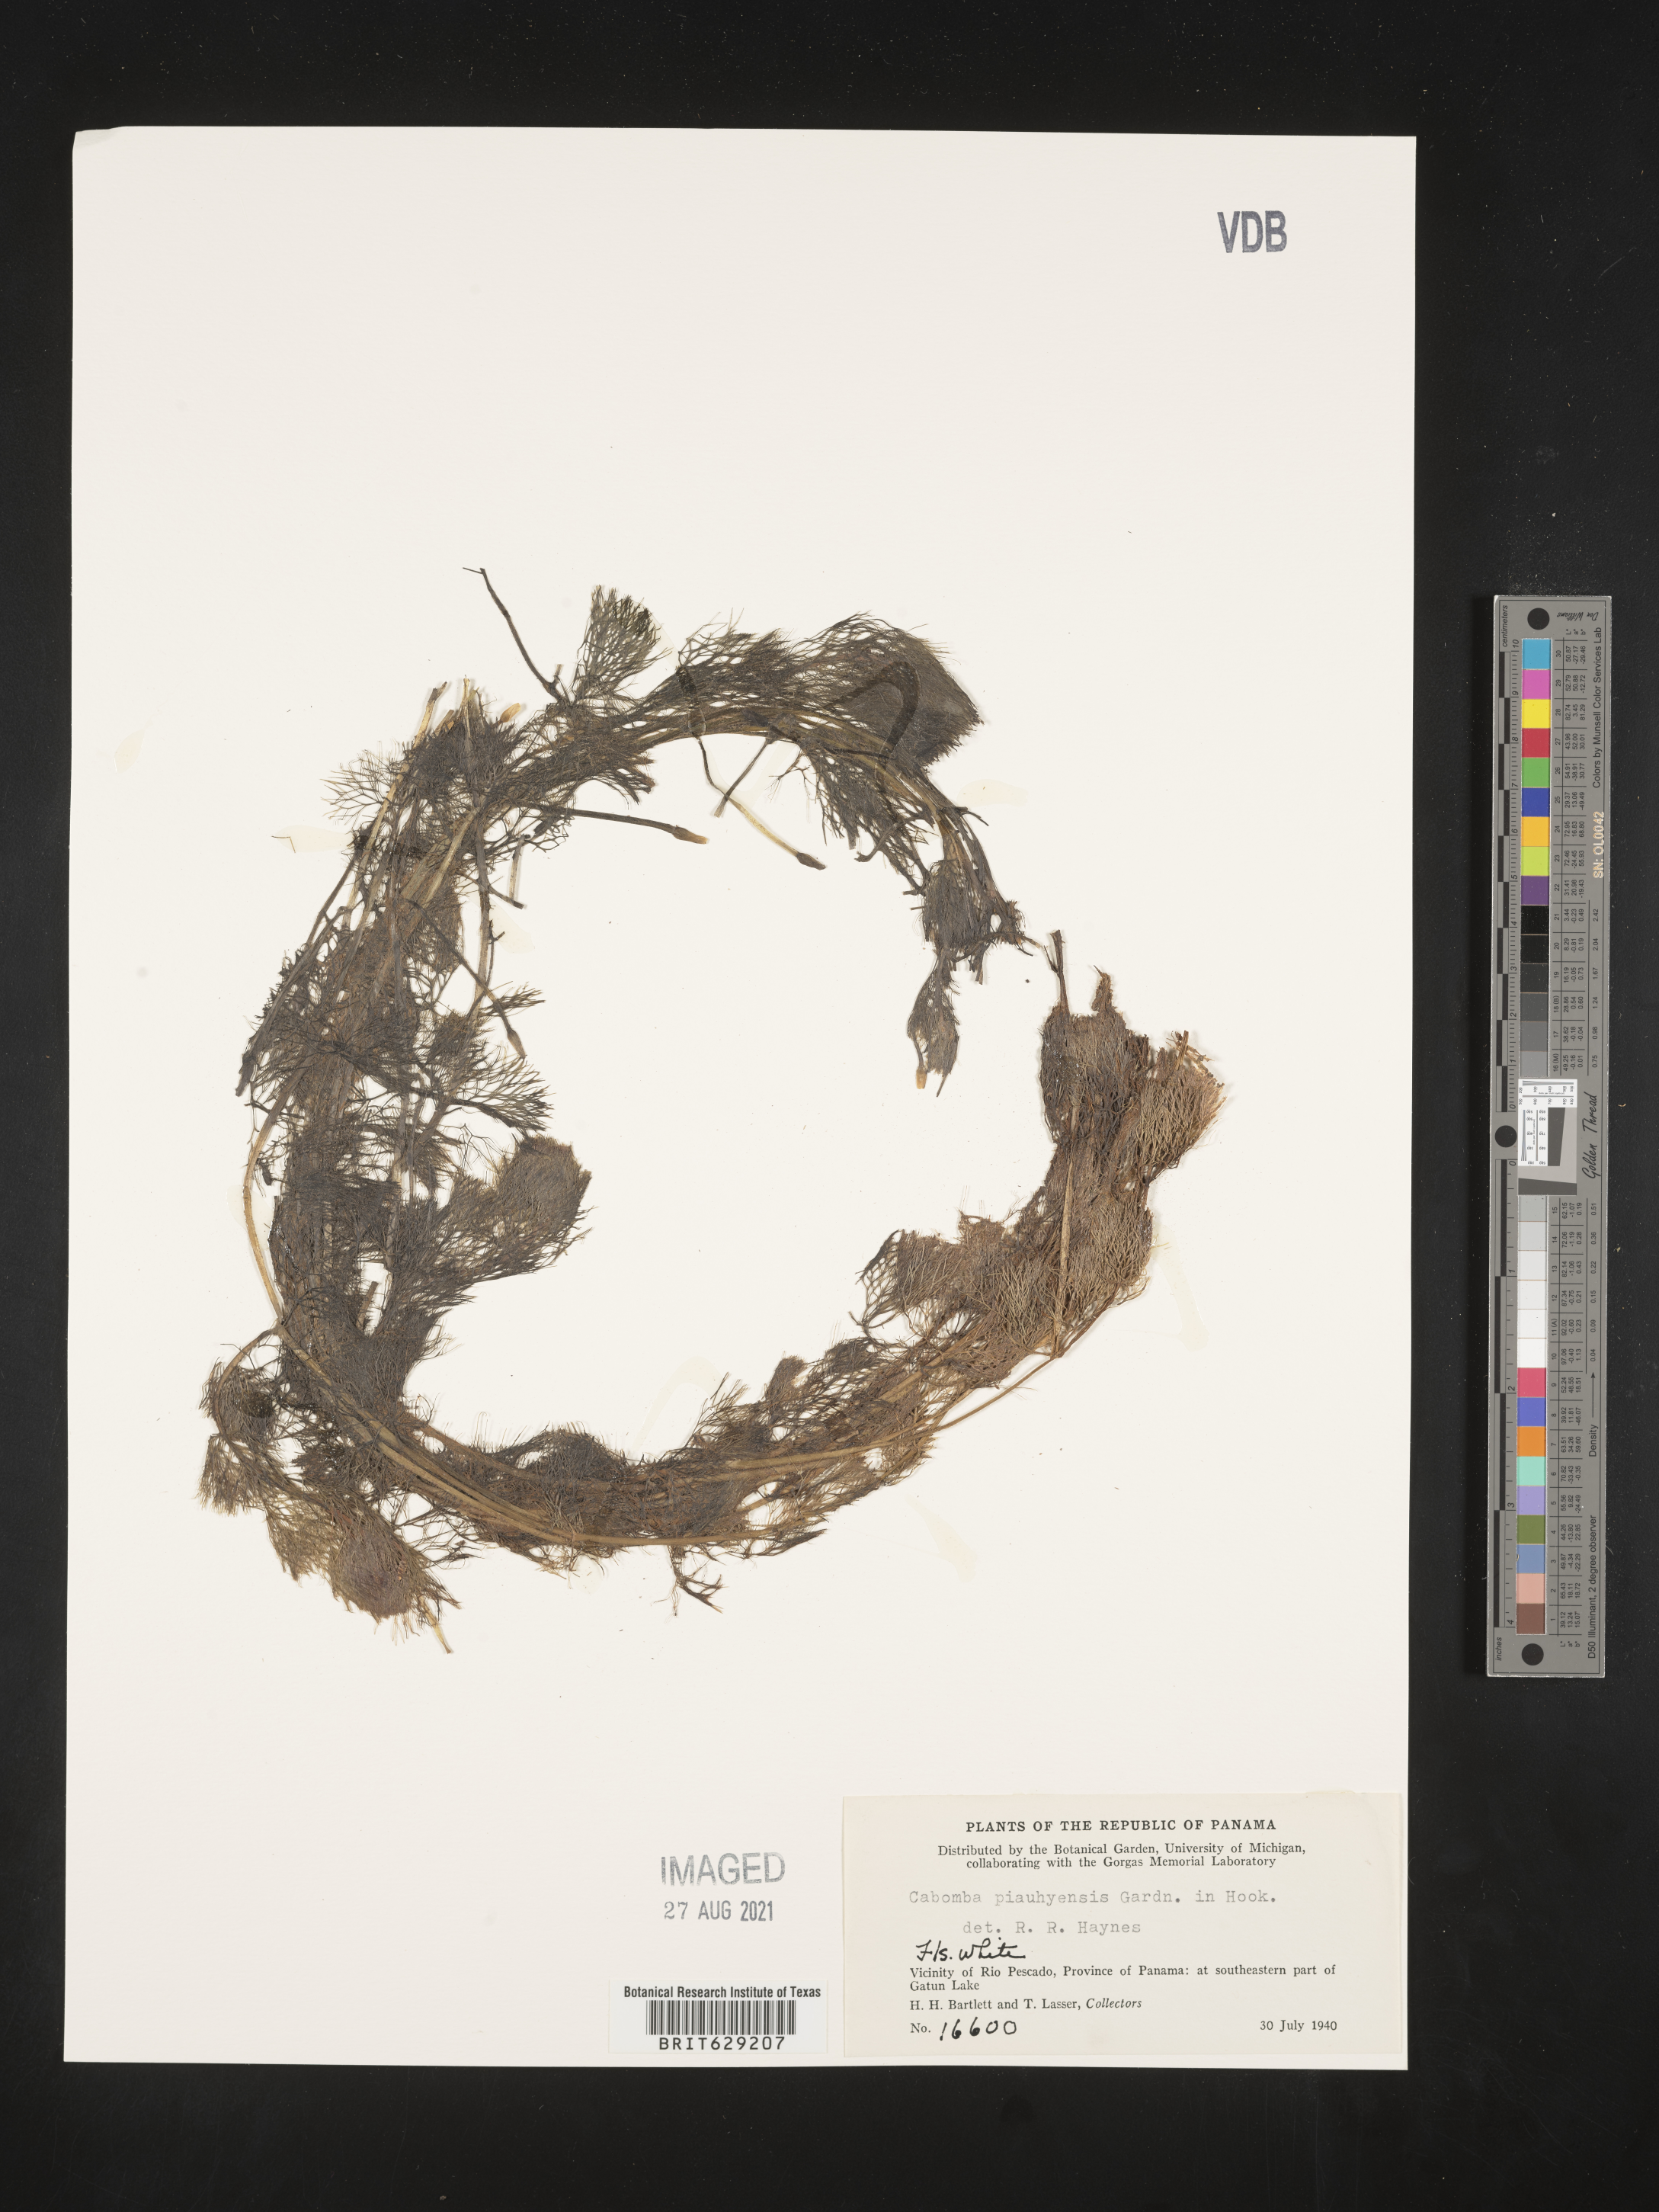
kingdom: Plantae
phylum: Tracheophyta
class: Magnoliopsida
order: Nymphaeales
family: Cabombaceae
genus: Cabomba
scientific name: Cabomba furcata
